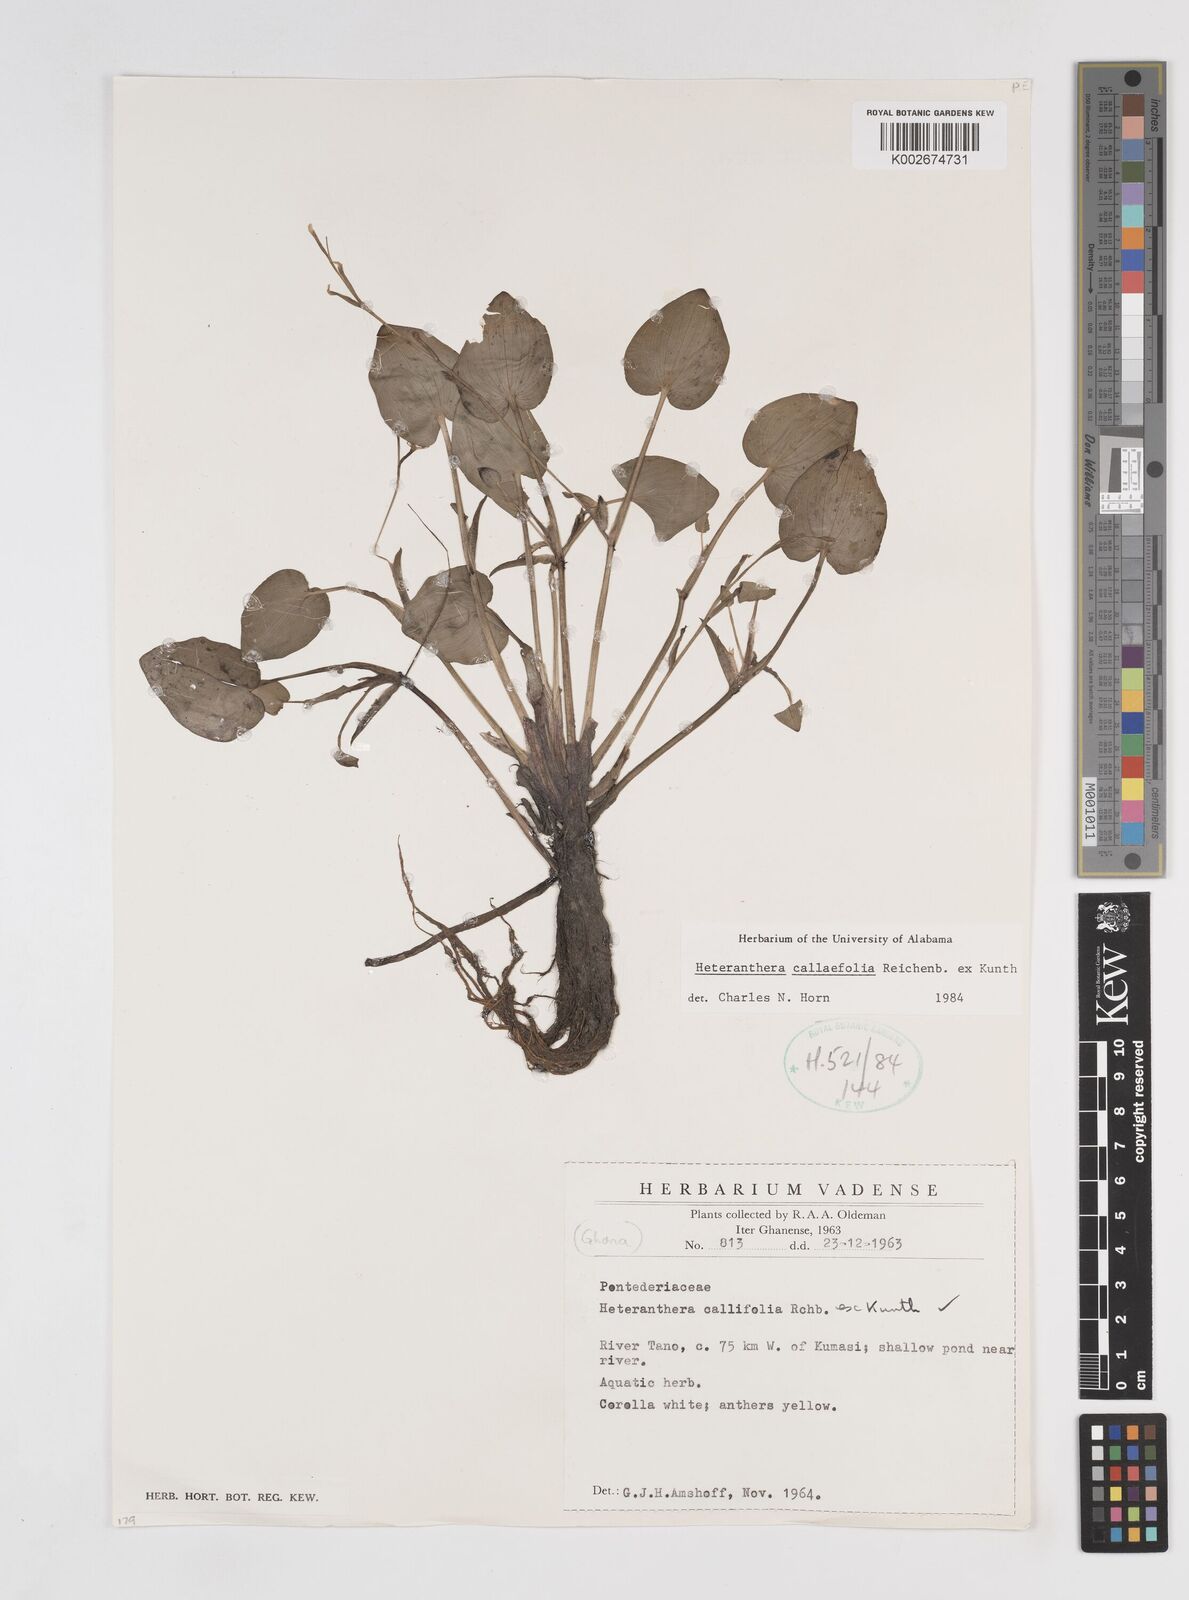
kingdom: Plantae
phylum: Tracheophyta
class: Liliopsida
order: Commelinales
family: Pontederiaceae
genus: Heteranthera
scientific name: Heteranthera callifolia
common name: Mud plantain
